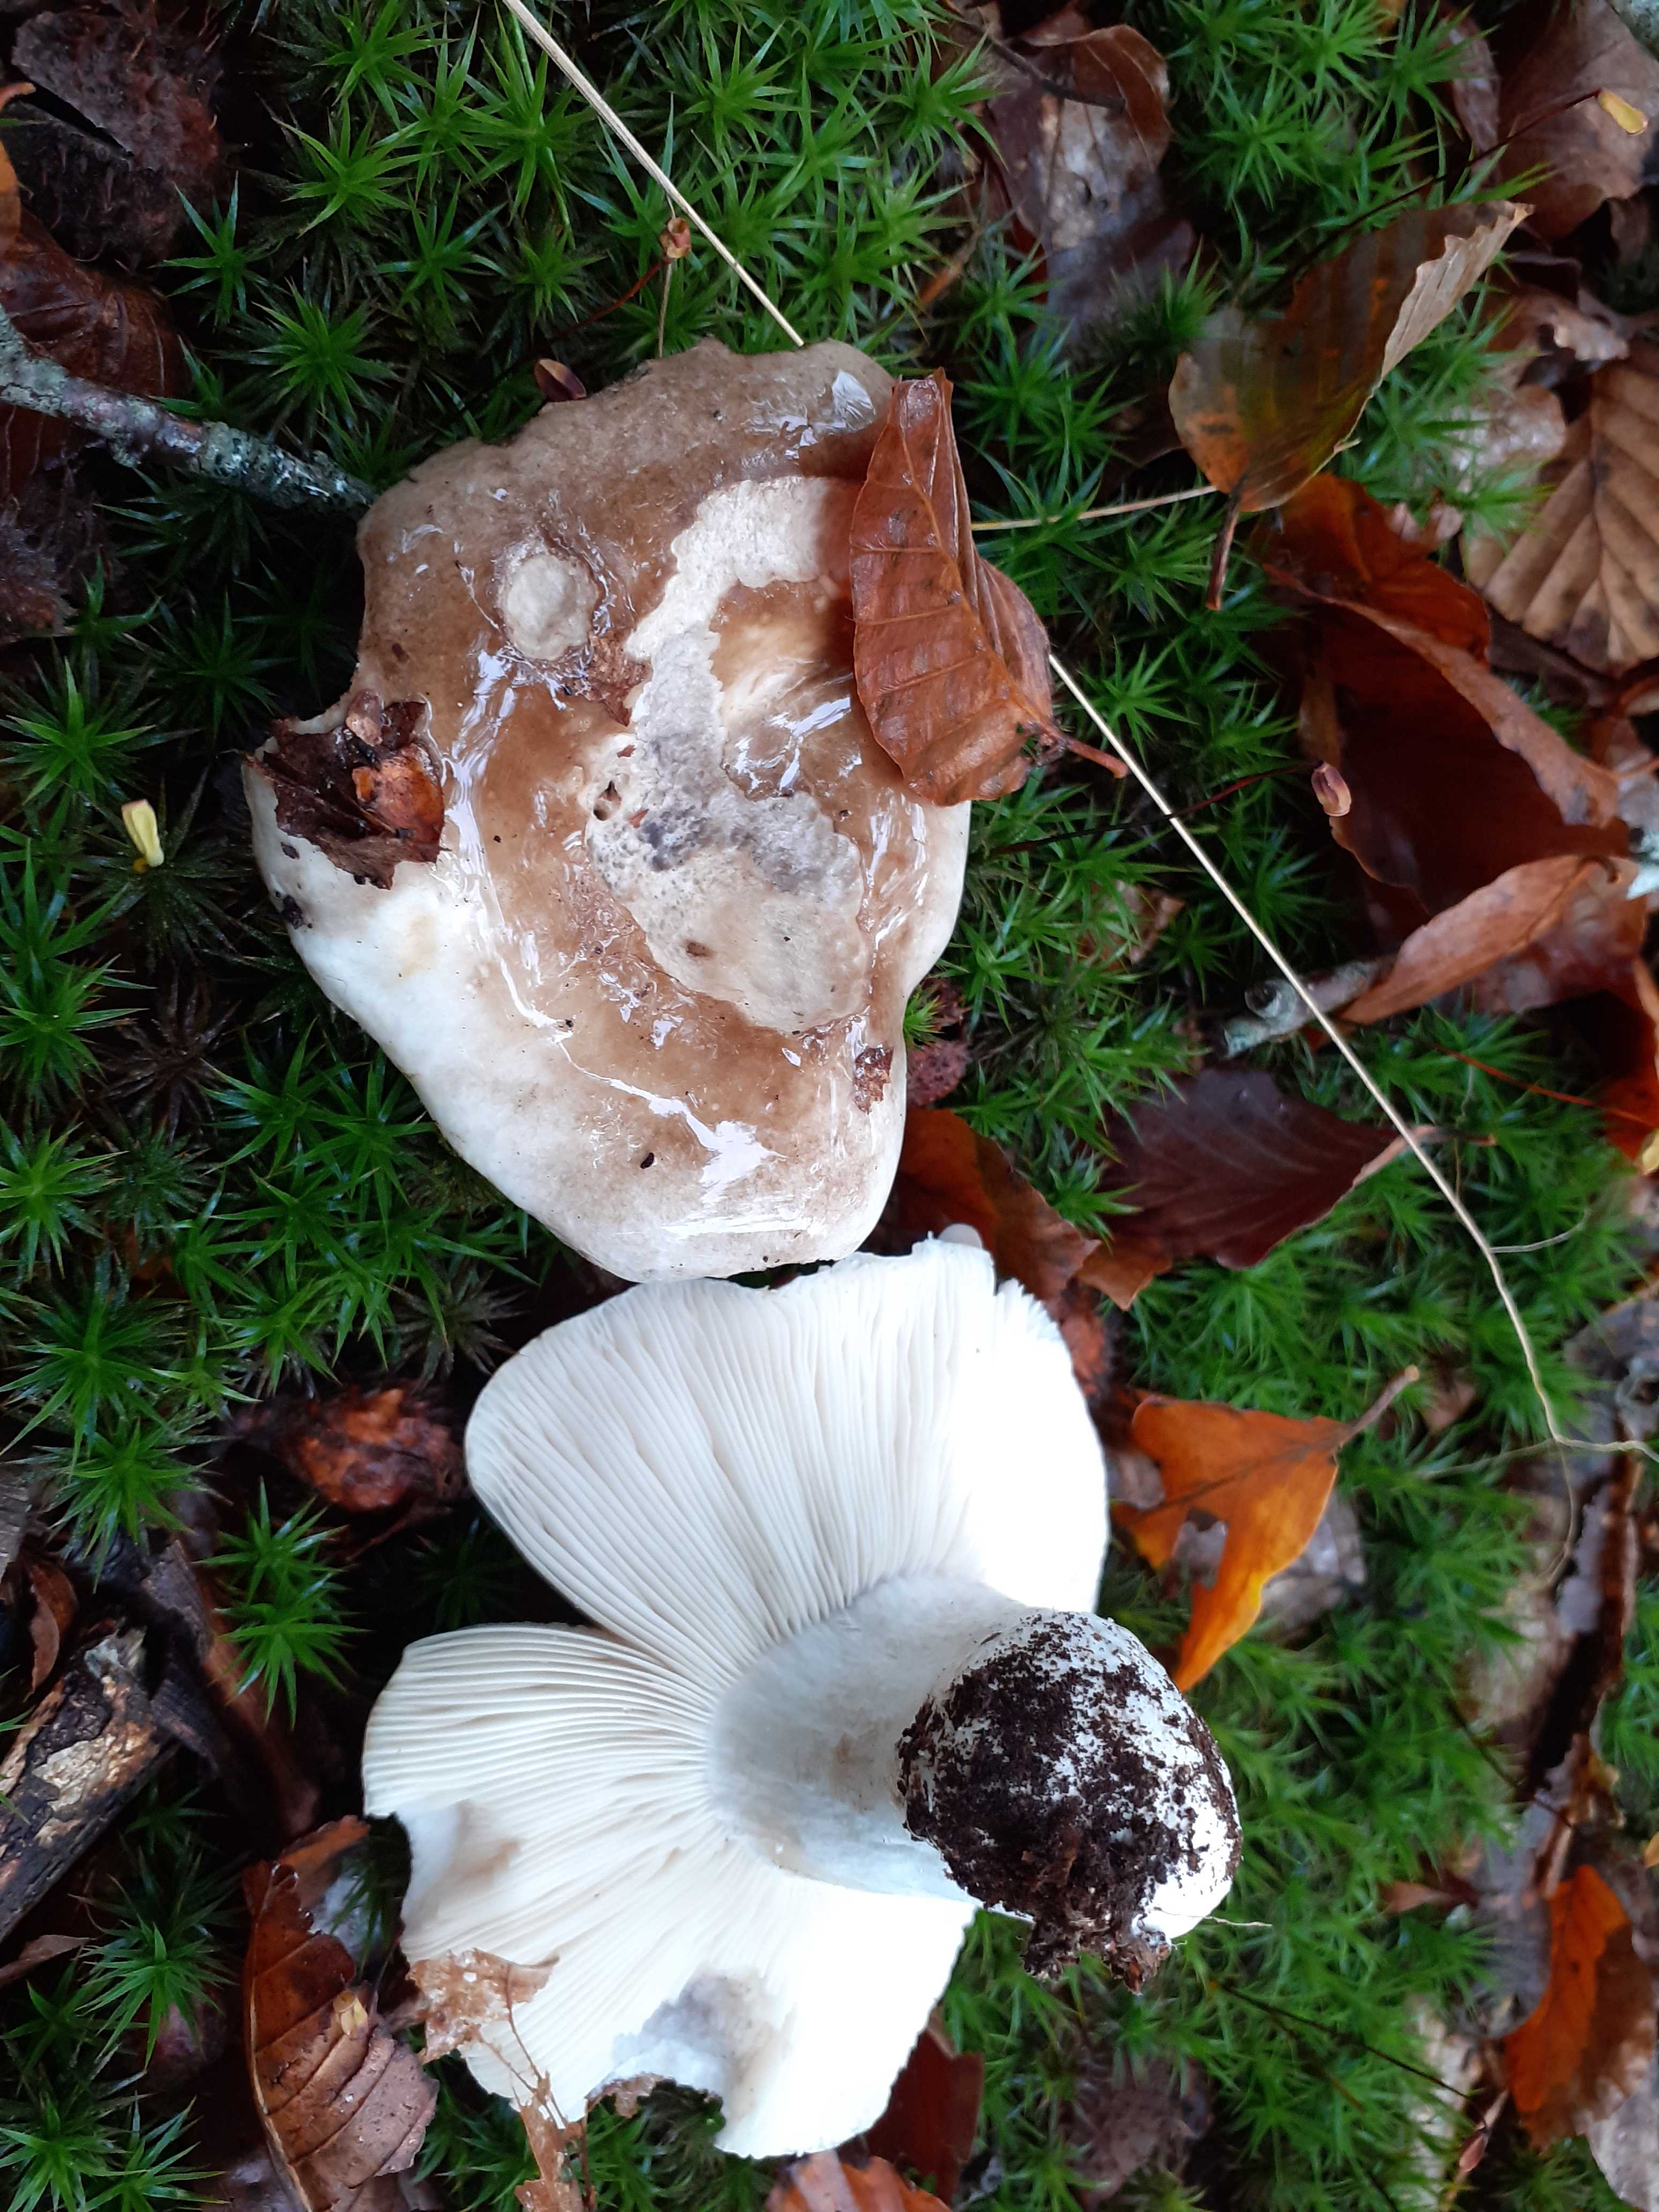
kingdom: Fungi
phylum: Basidiomycota
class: Agaricomycetes
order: Russulales
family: Russulaceae
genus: Russula
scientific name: Russula densifolia
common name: tætbladet skørhat
